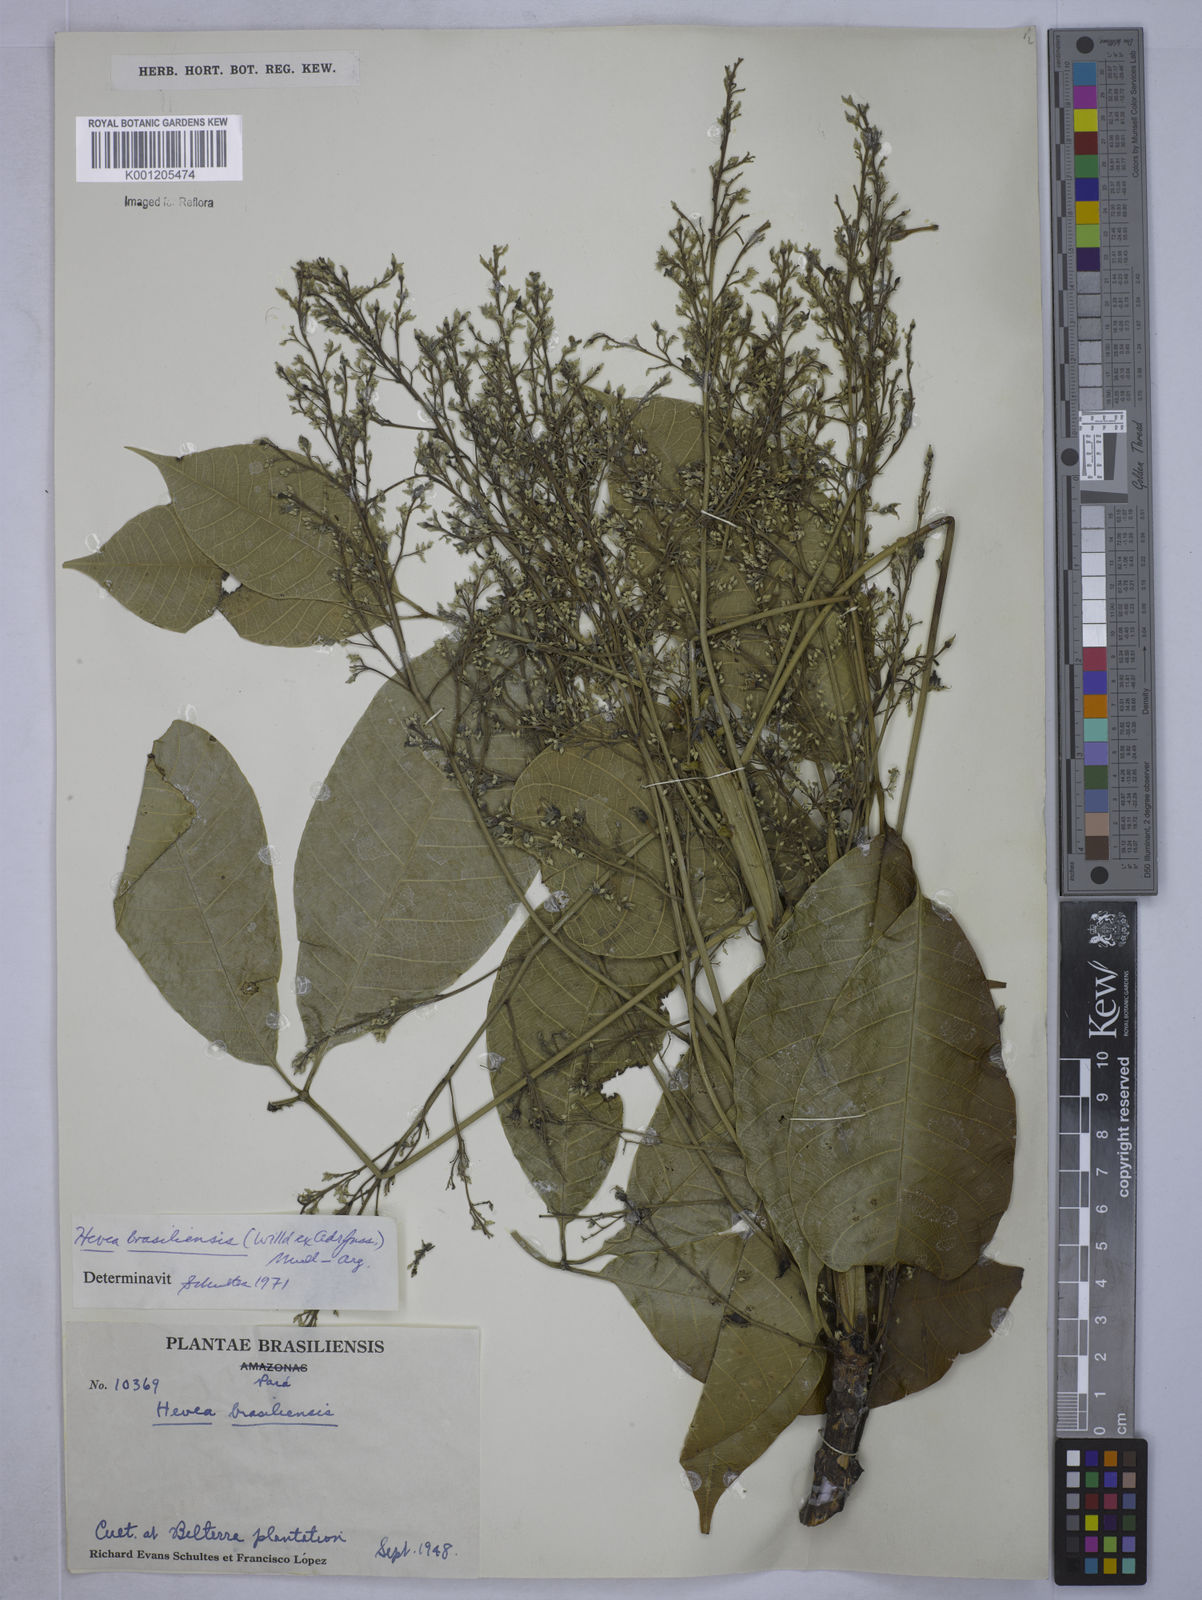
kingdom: Plantae
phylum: Tracheophyta
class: Magnoliopsida
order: Malpighiales
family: Euphorbiaceae
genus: Hevea
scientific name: Hevea
